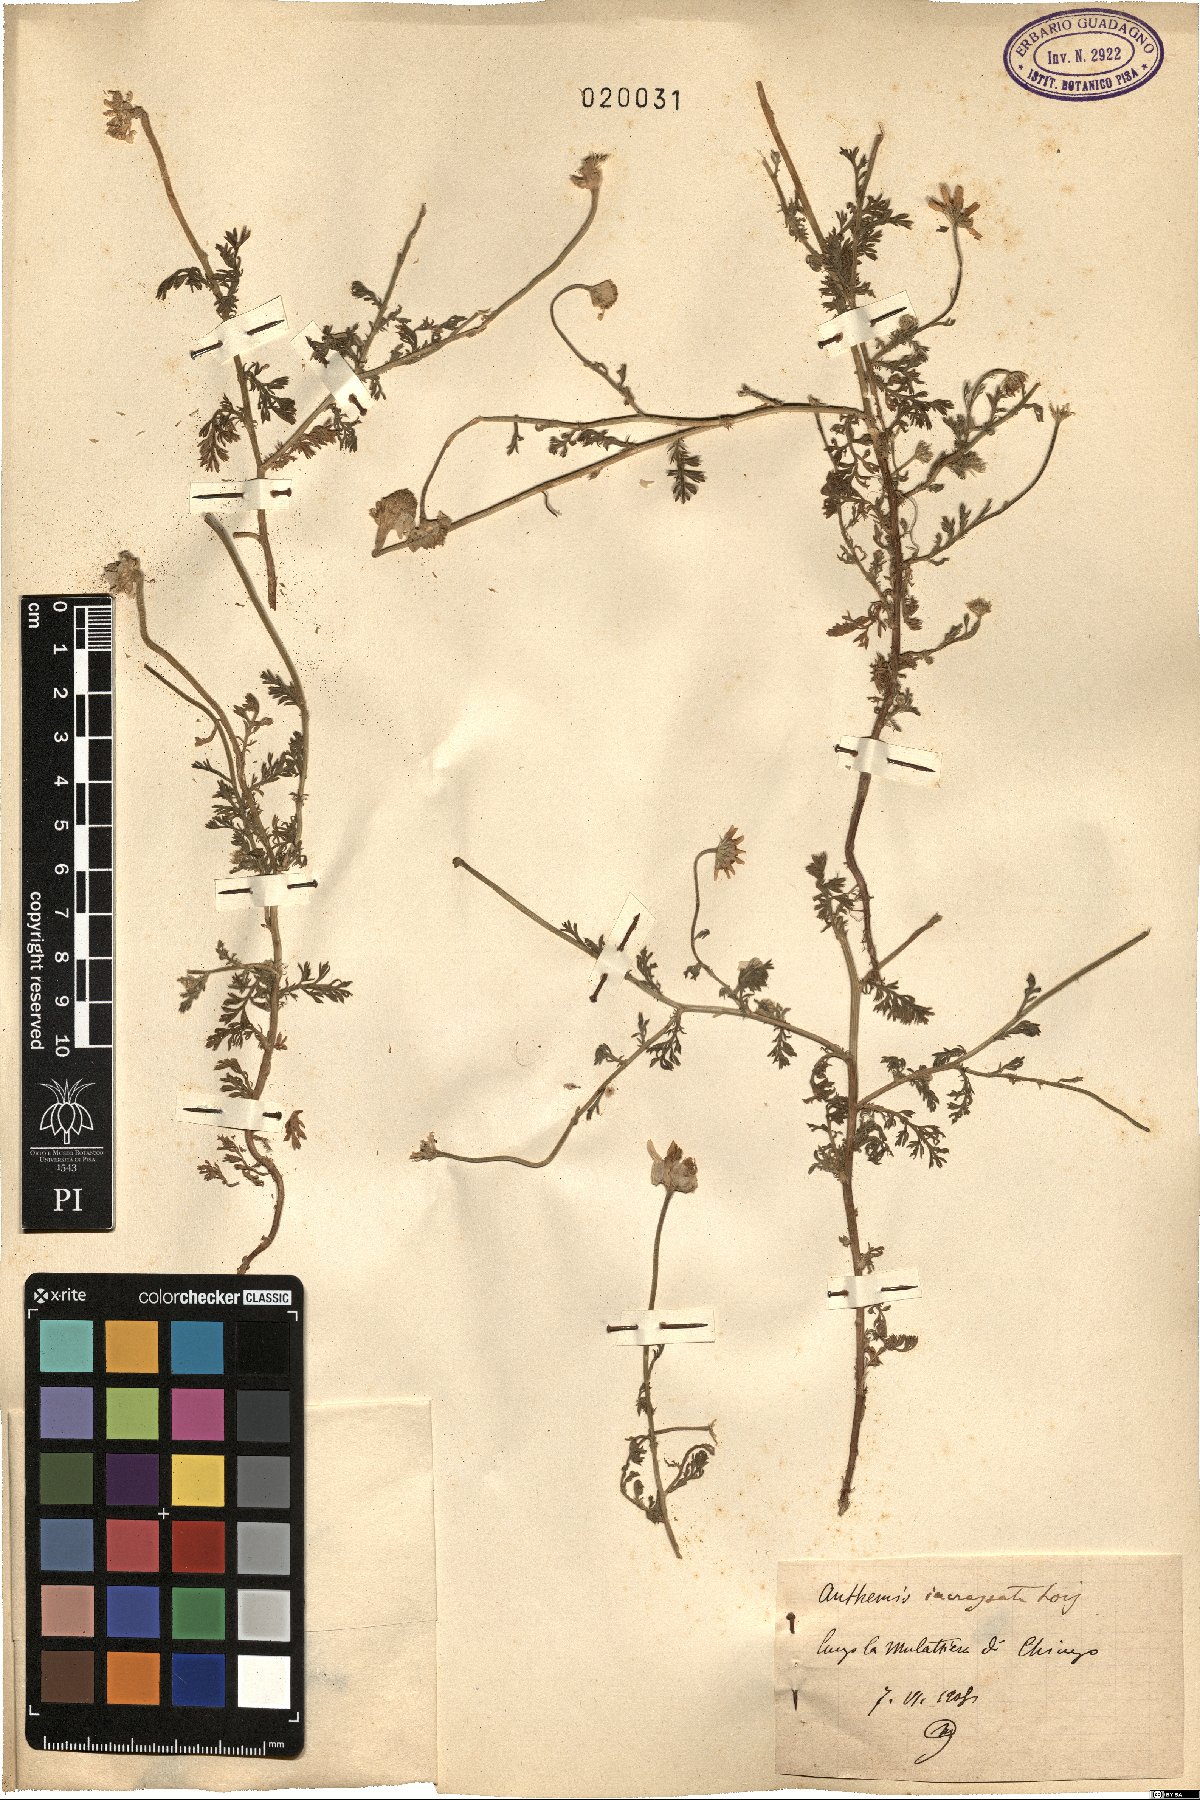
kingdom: Plantae
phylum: Tracheophyta
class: Magnoliopsida
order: Asterales
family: Asteraceae
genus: Anthemis
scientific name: Anthemis arvensis
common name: Corn chamomile
